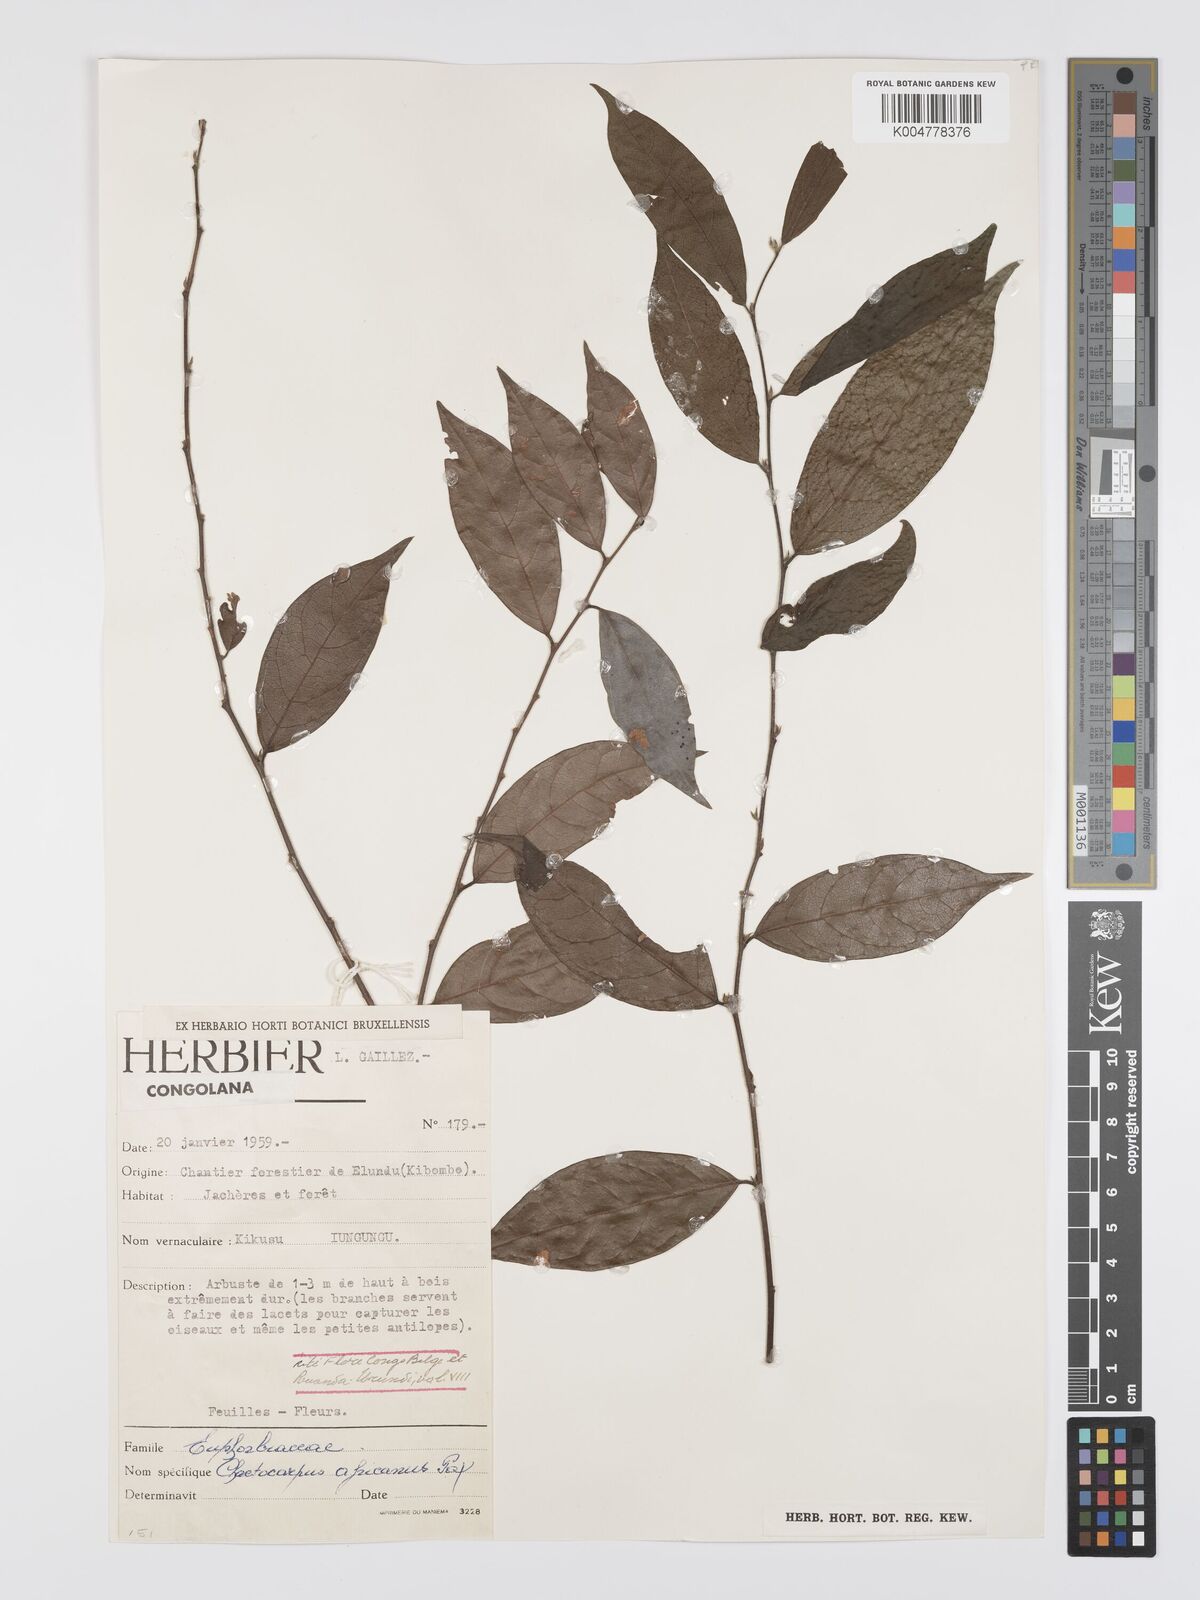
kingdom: Plantae
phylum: Tracheophyta
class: Magnoliopsida
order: Malpighiales
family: Peraceae
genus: Chaetocarpus
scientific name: Chaetocarpus africanus
